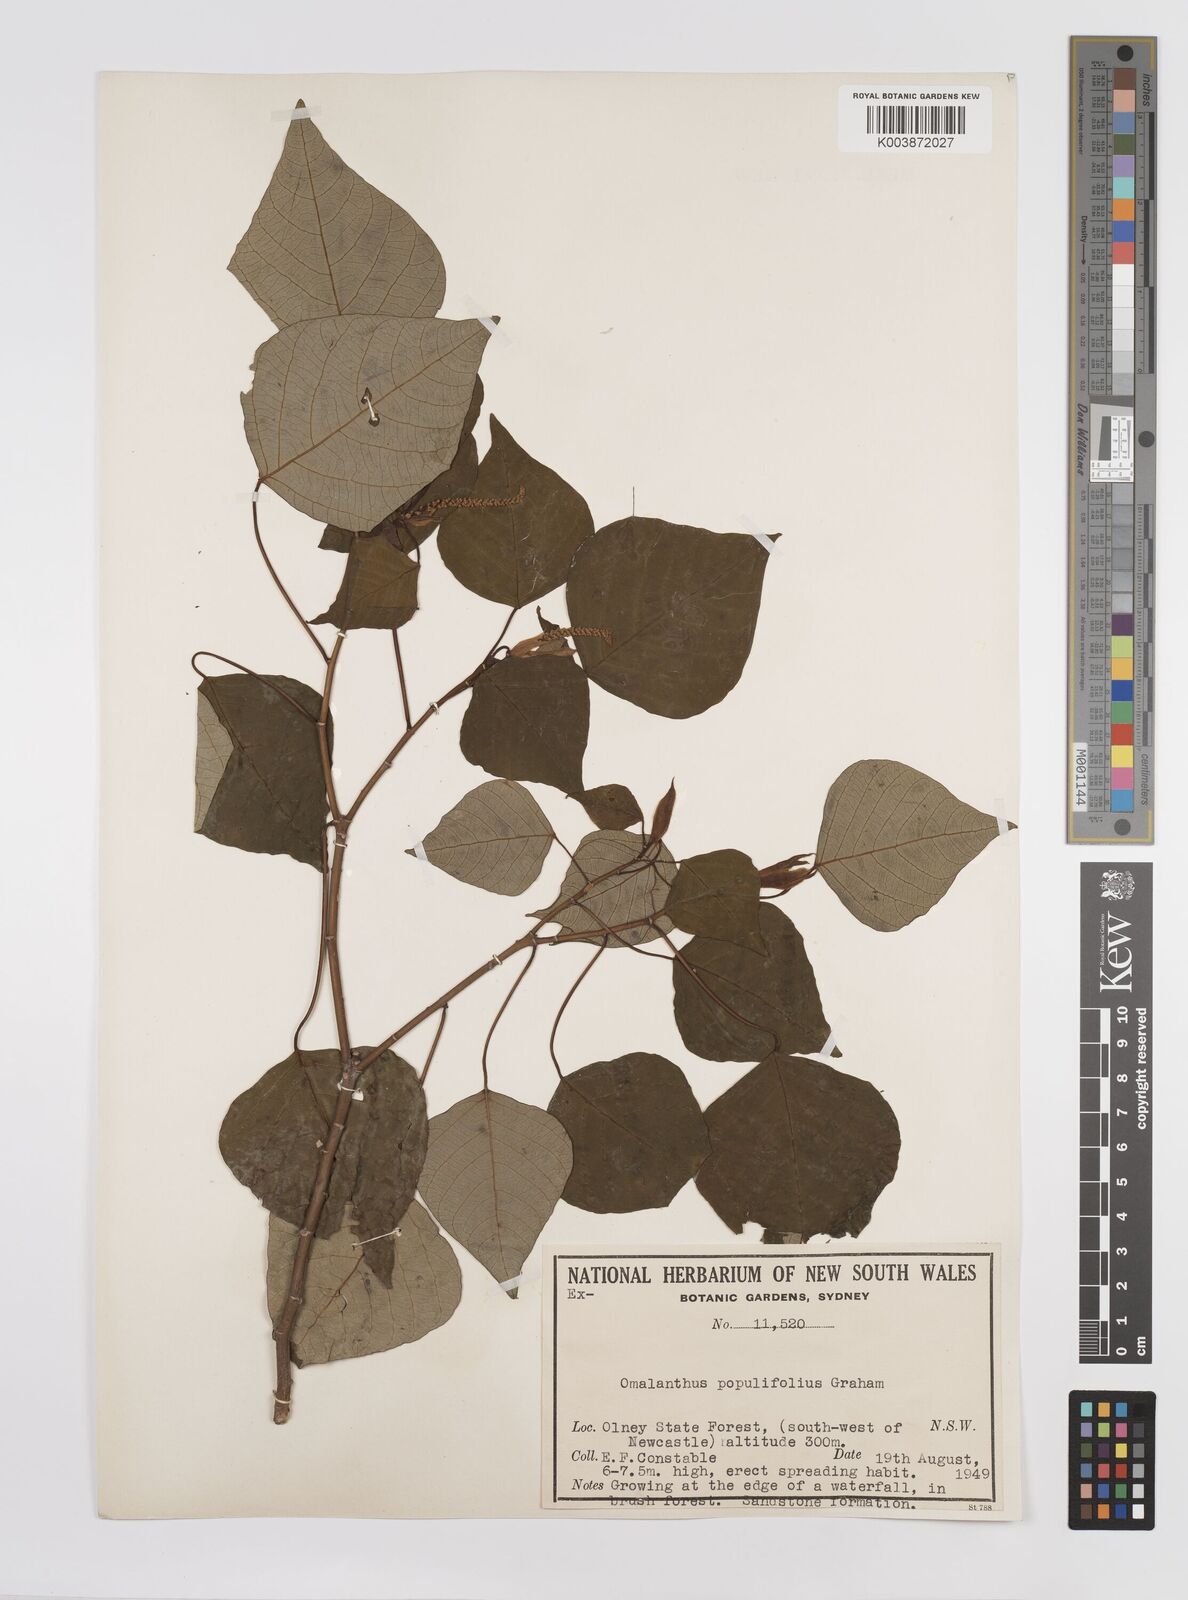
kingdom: Plantae
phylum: Tracheophyta
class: Magnoliopsida
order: Malpighiales
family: Euphorbiaceae
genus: Homalanthus
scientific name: Homalanthus populifolius
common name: Queensland poplar
